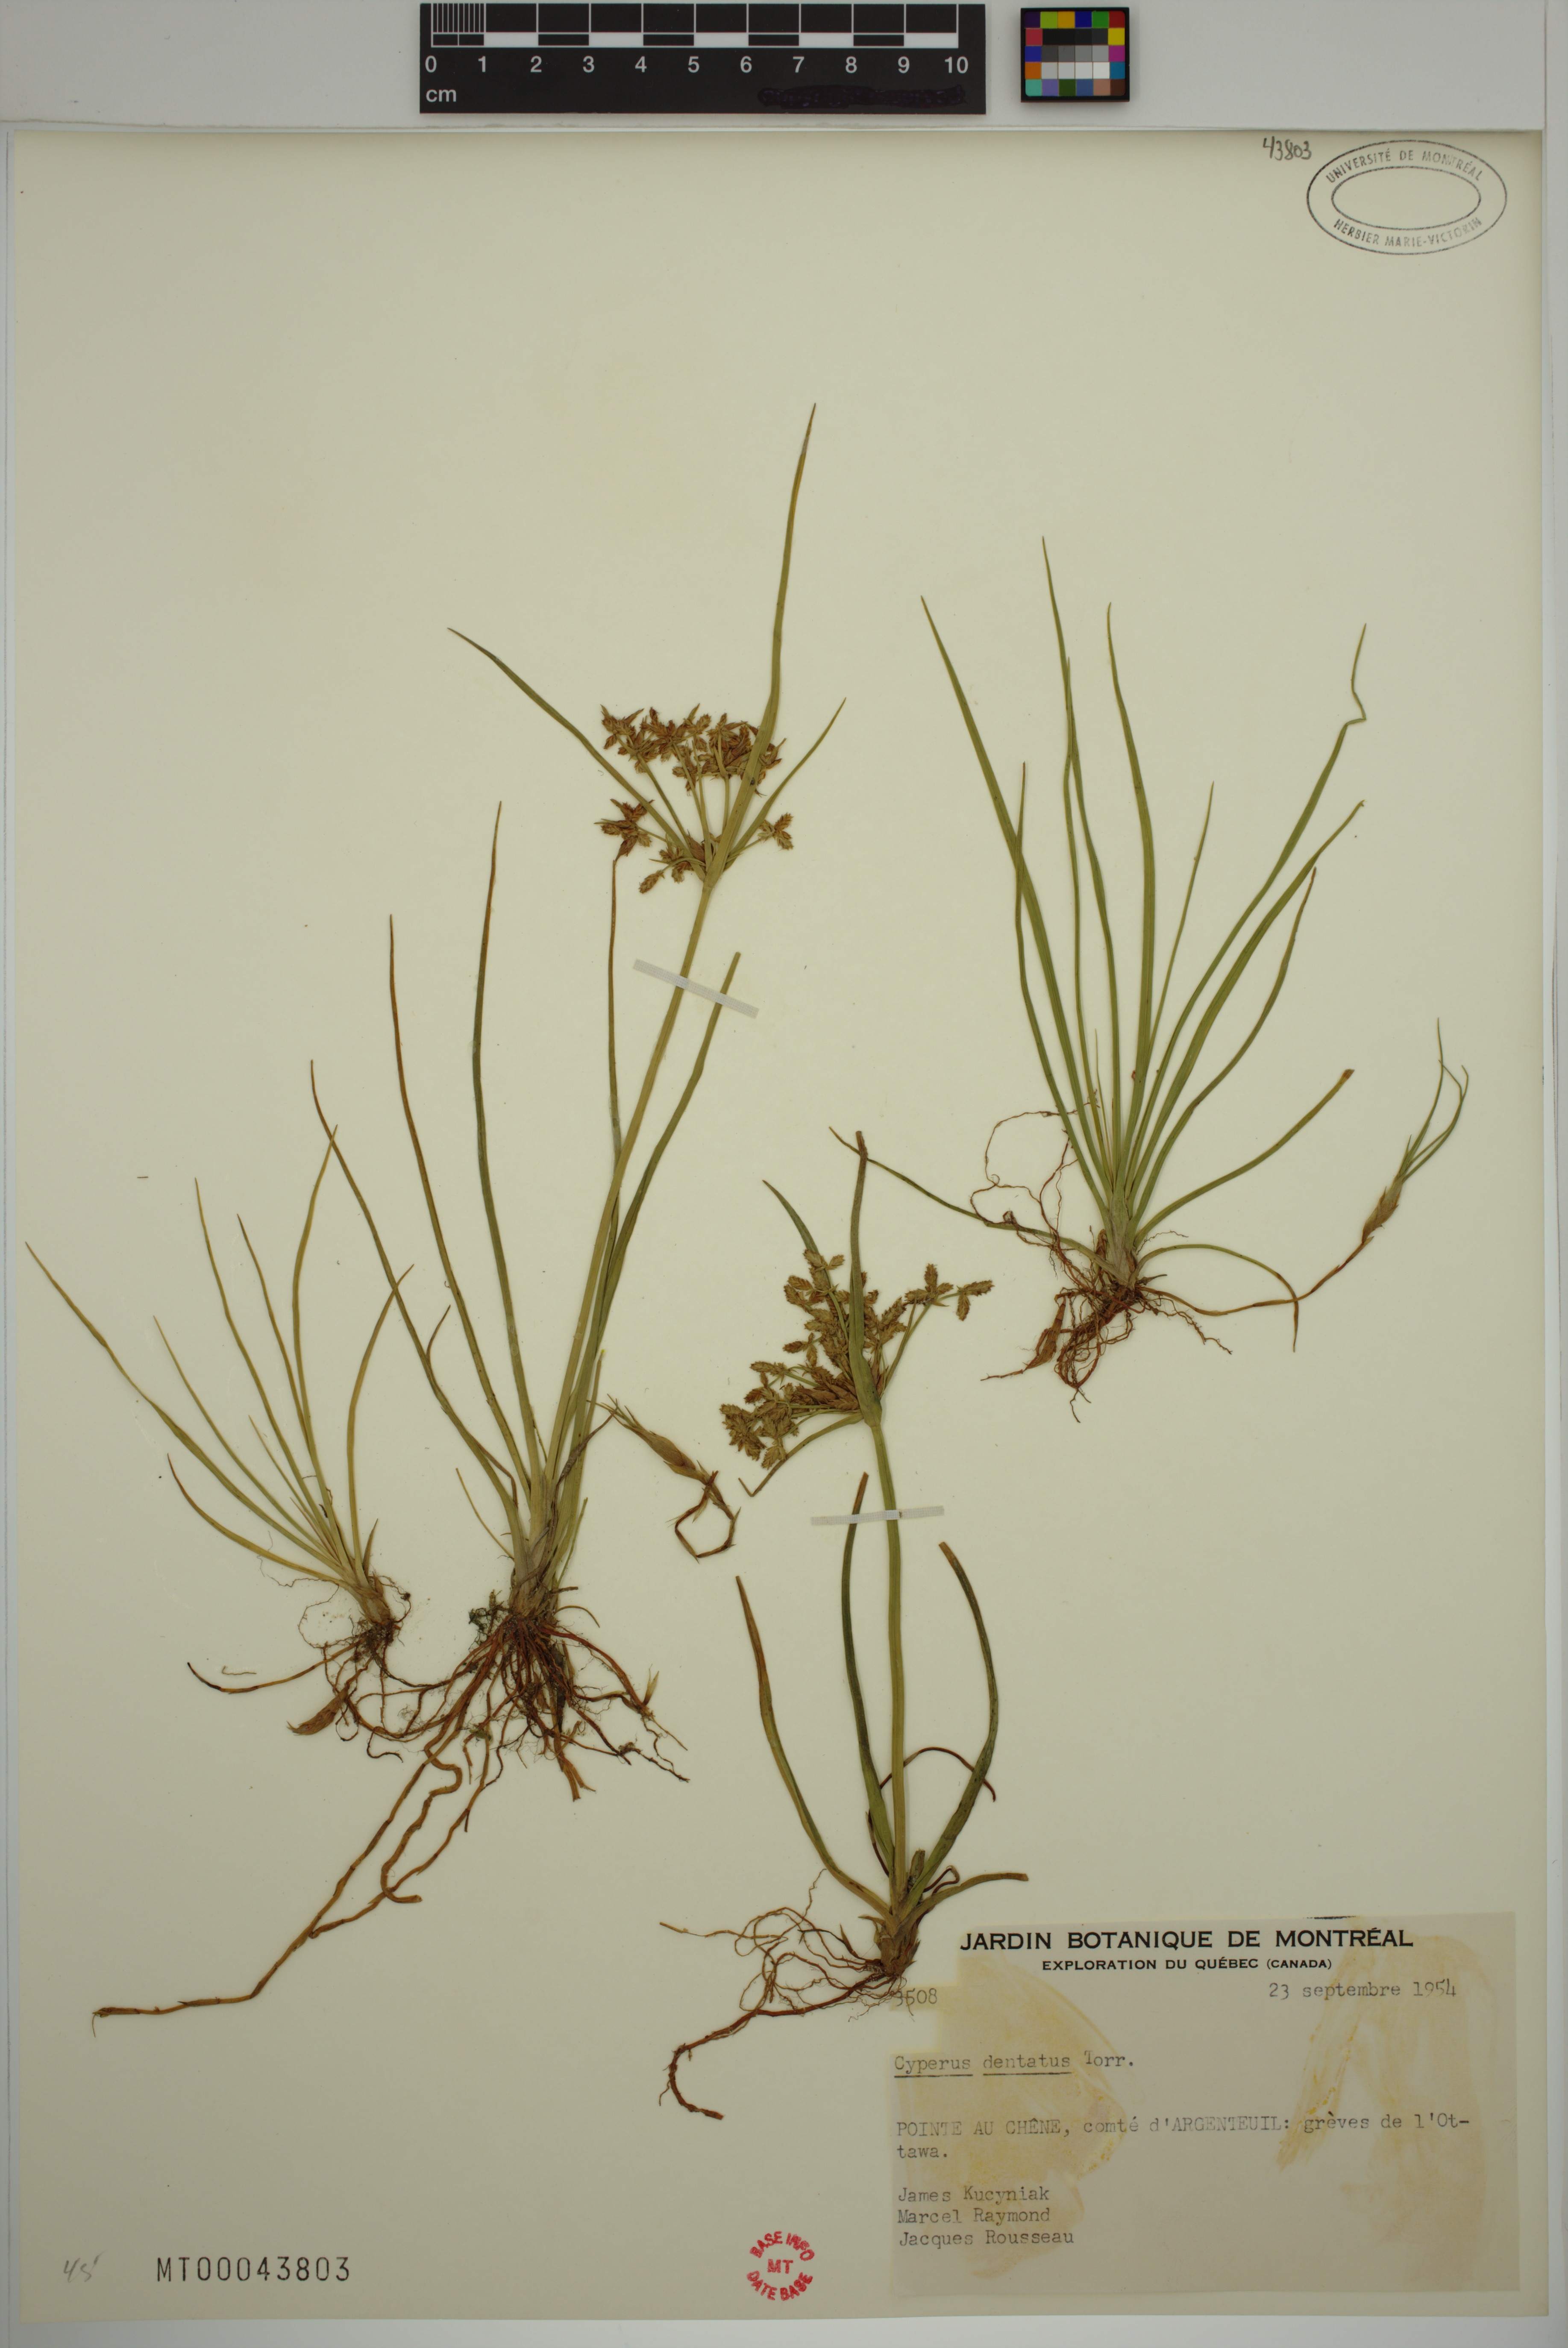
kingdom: Plantae
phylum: Tracheophyta
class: Liliopsida
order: Poales
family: Cyperaceae
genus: Cyperus
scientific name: Cyperus dentatus
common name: Dentate umbrella sedge
